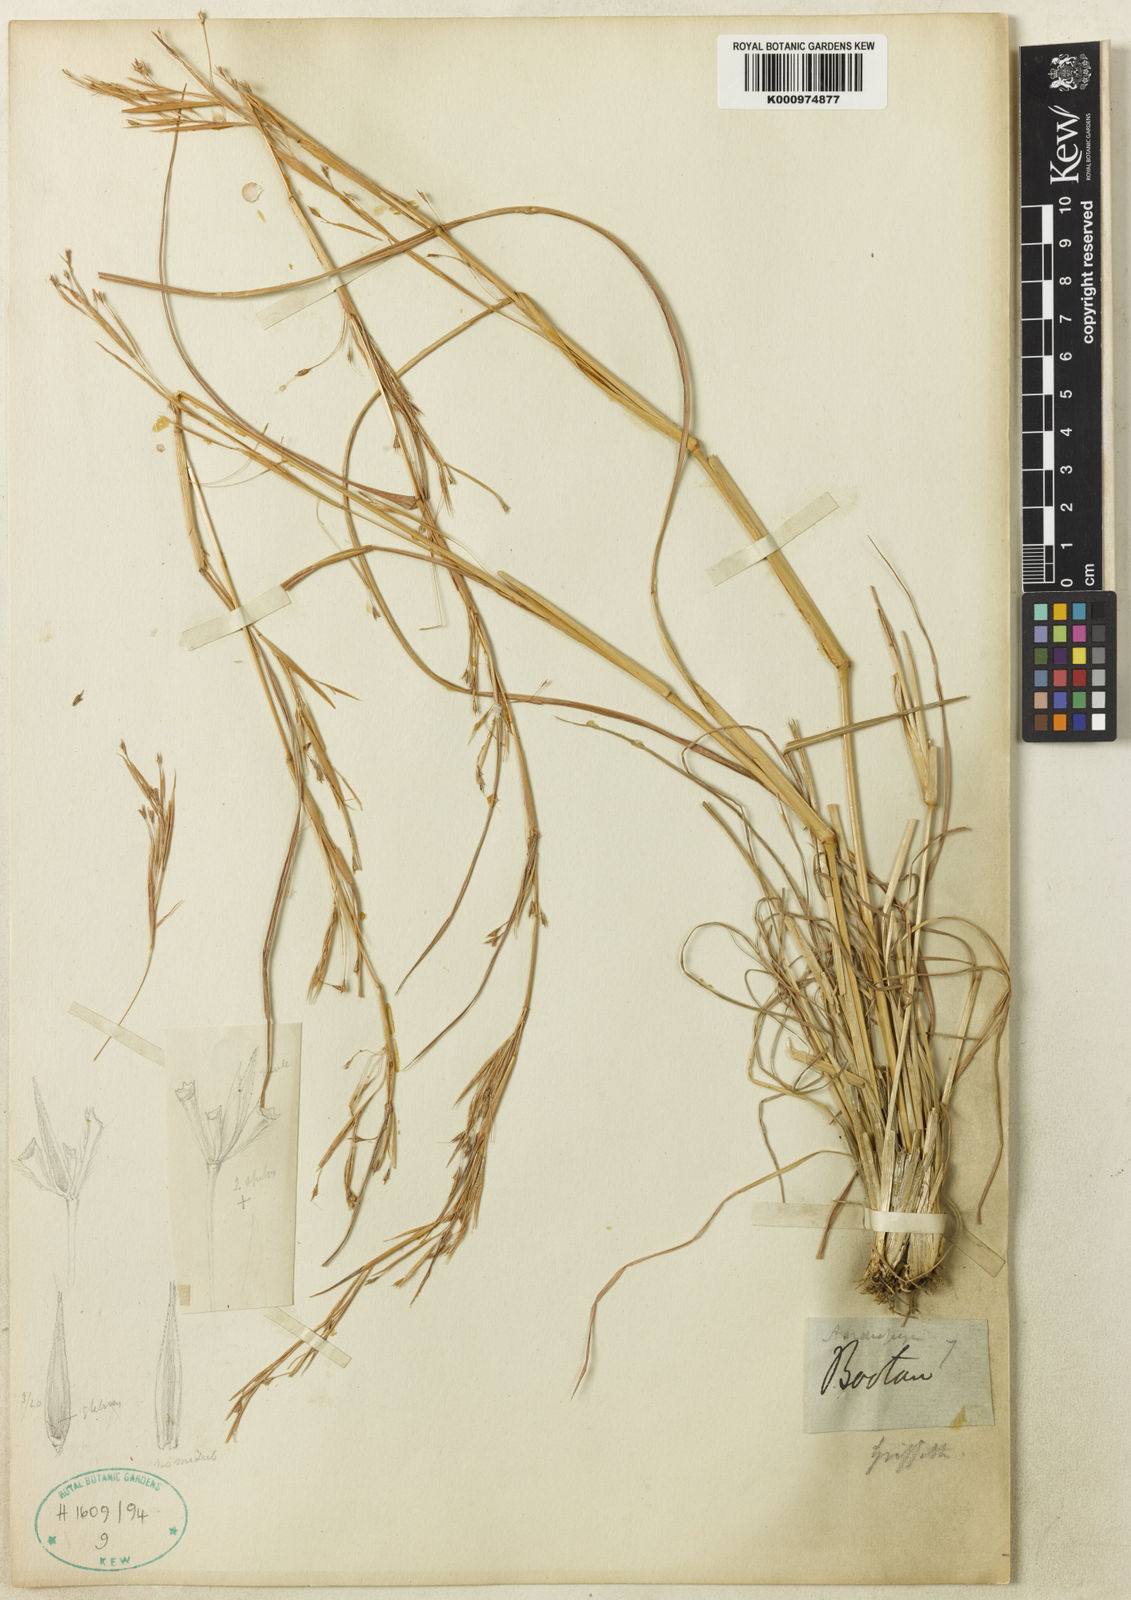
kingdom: Plantae
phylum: Tracheophyta
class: Liliopsida
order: Poales
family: Poaceae
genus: Andropogon
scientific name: Andropogon munroi
